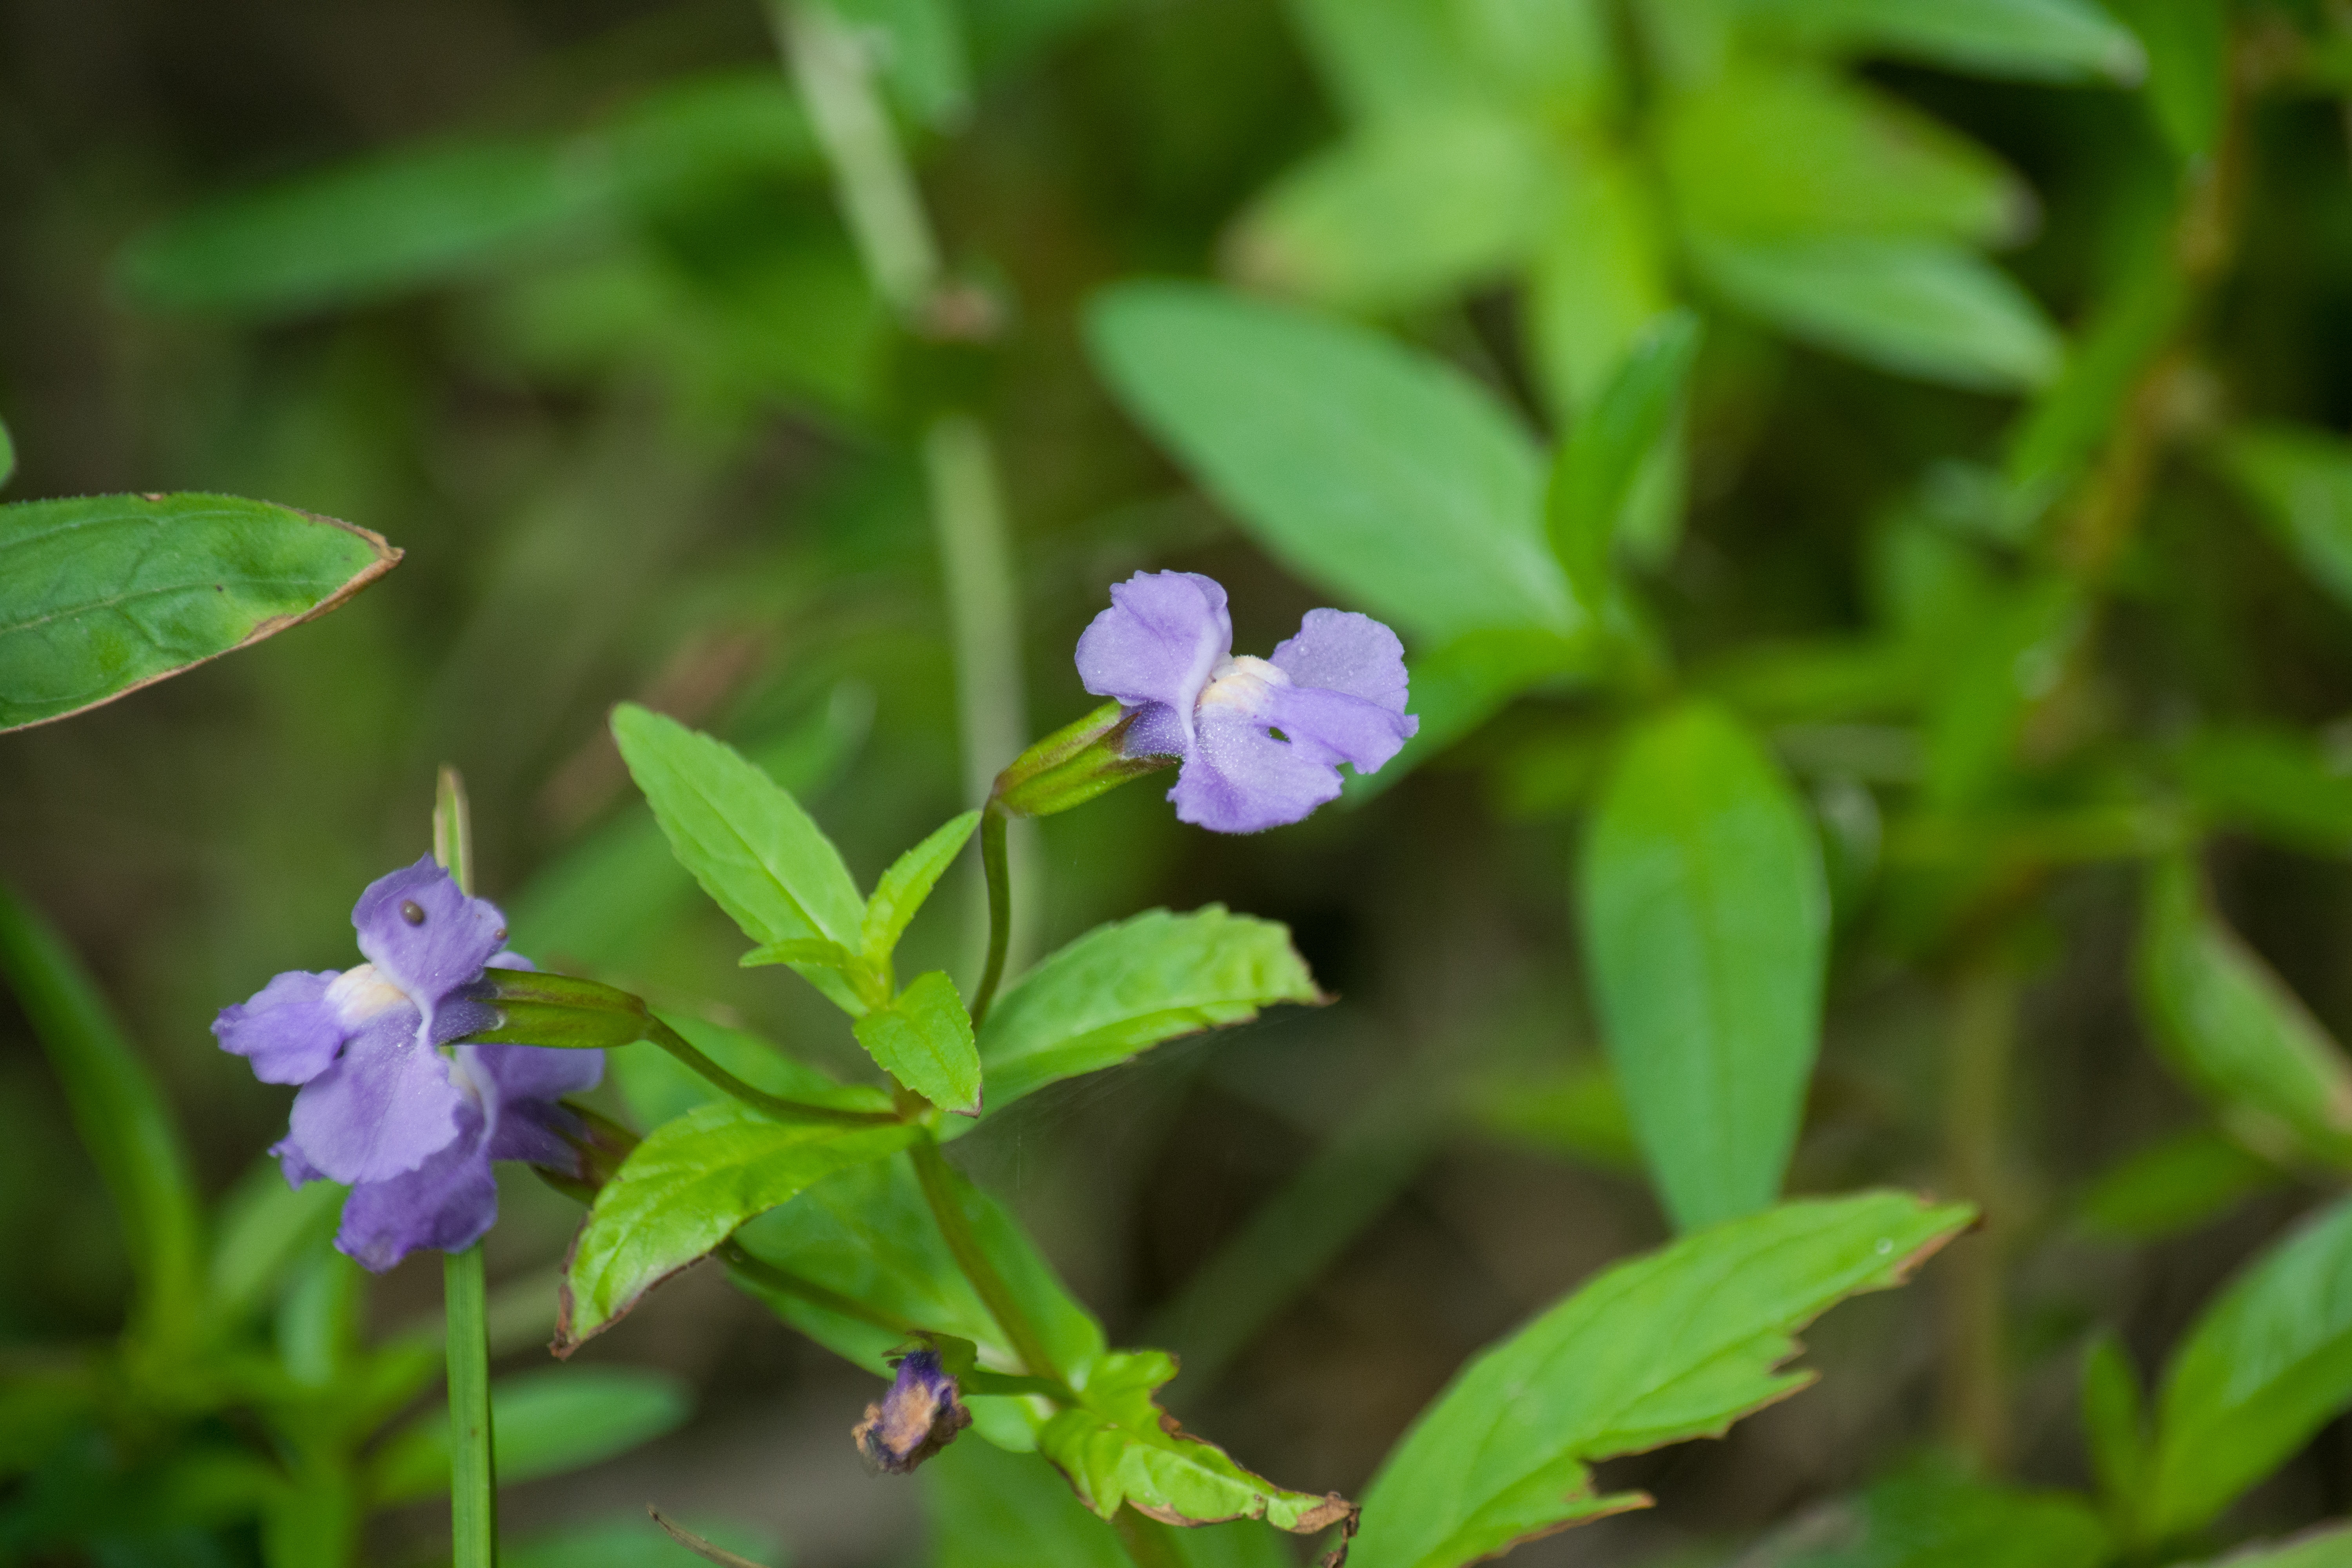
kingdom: Plantae
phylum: Tracheophyta
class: Magnoliopsida
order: Lamiales
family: Phrymaceae
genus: Mimulus
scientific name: Mimulus ringens
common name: Allegheny monkeyflower
